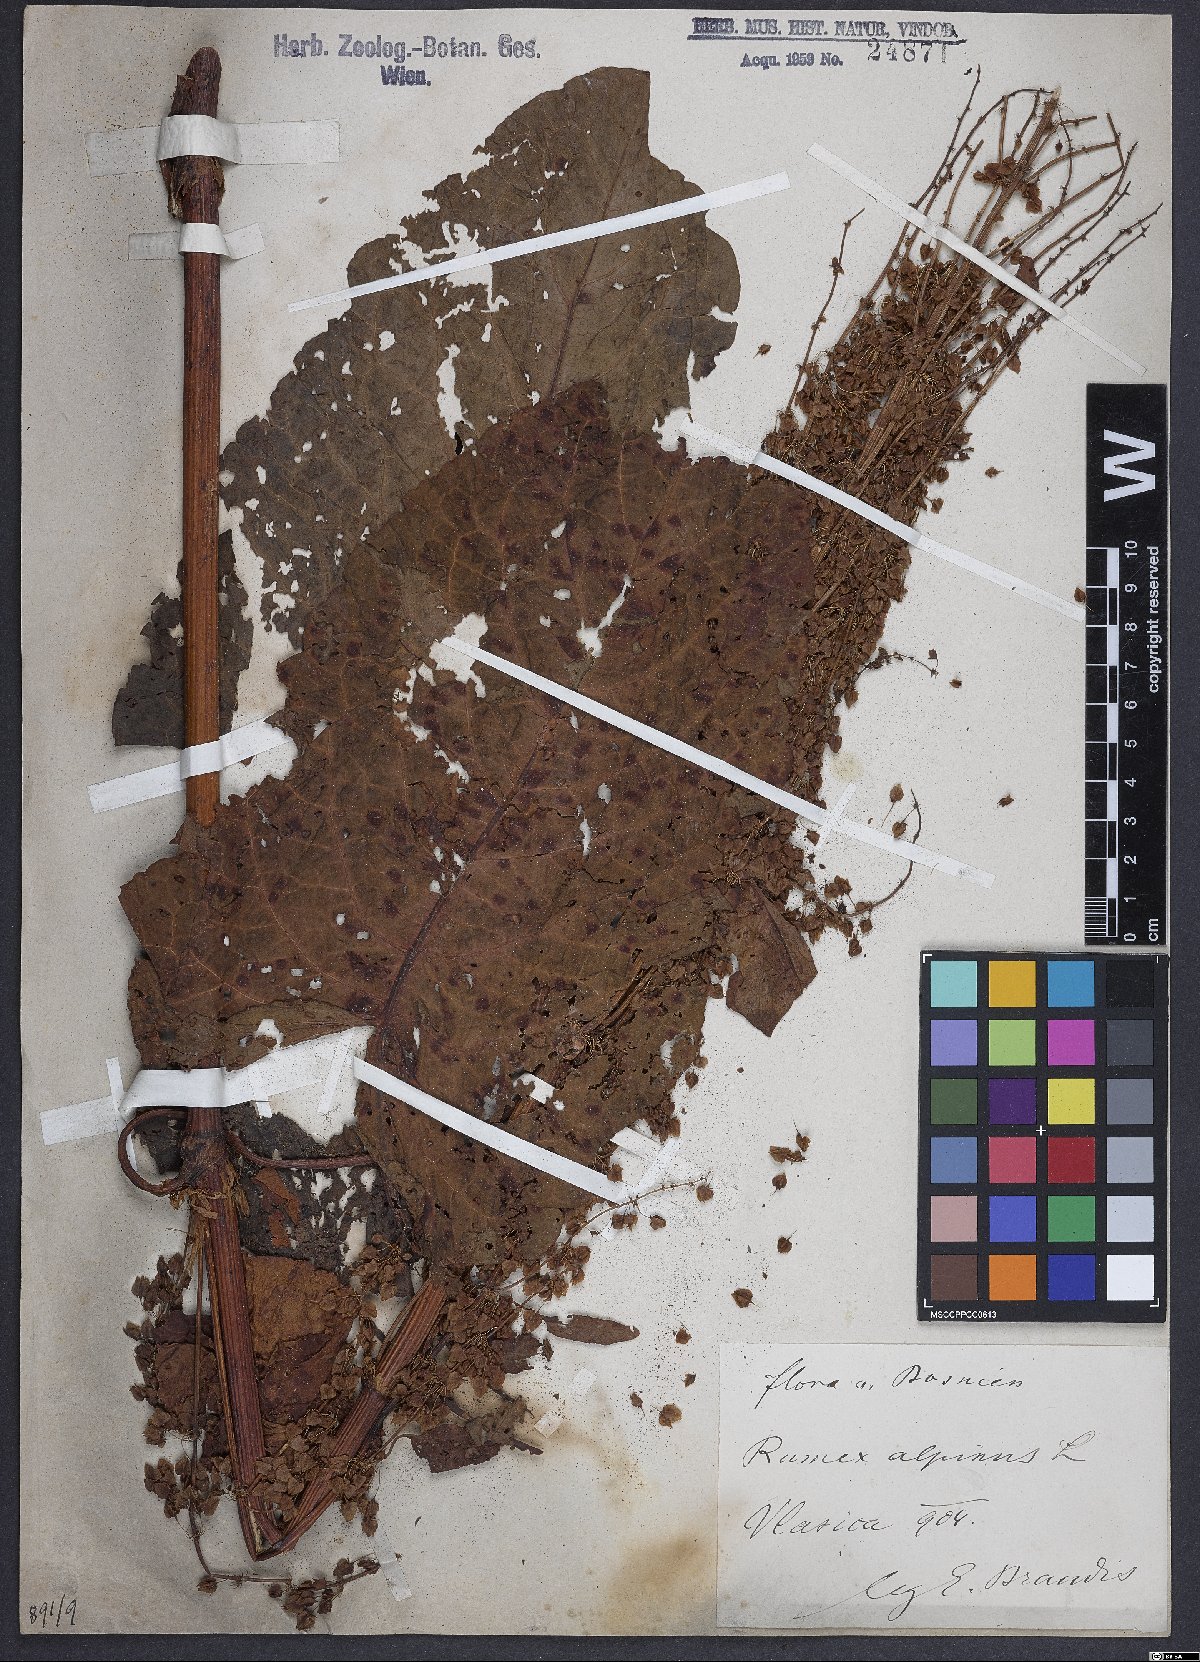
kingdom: Plantae
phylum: Tracheophyta
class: Magnoliopsida
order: Caryophyllales
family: Polygonaceae
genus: Rumex
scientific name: Rumex alpinus
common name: Alpine dock
